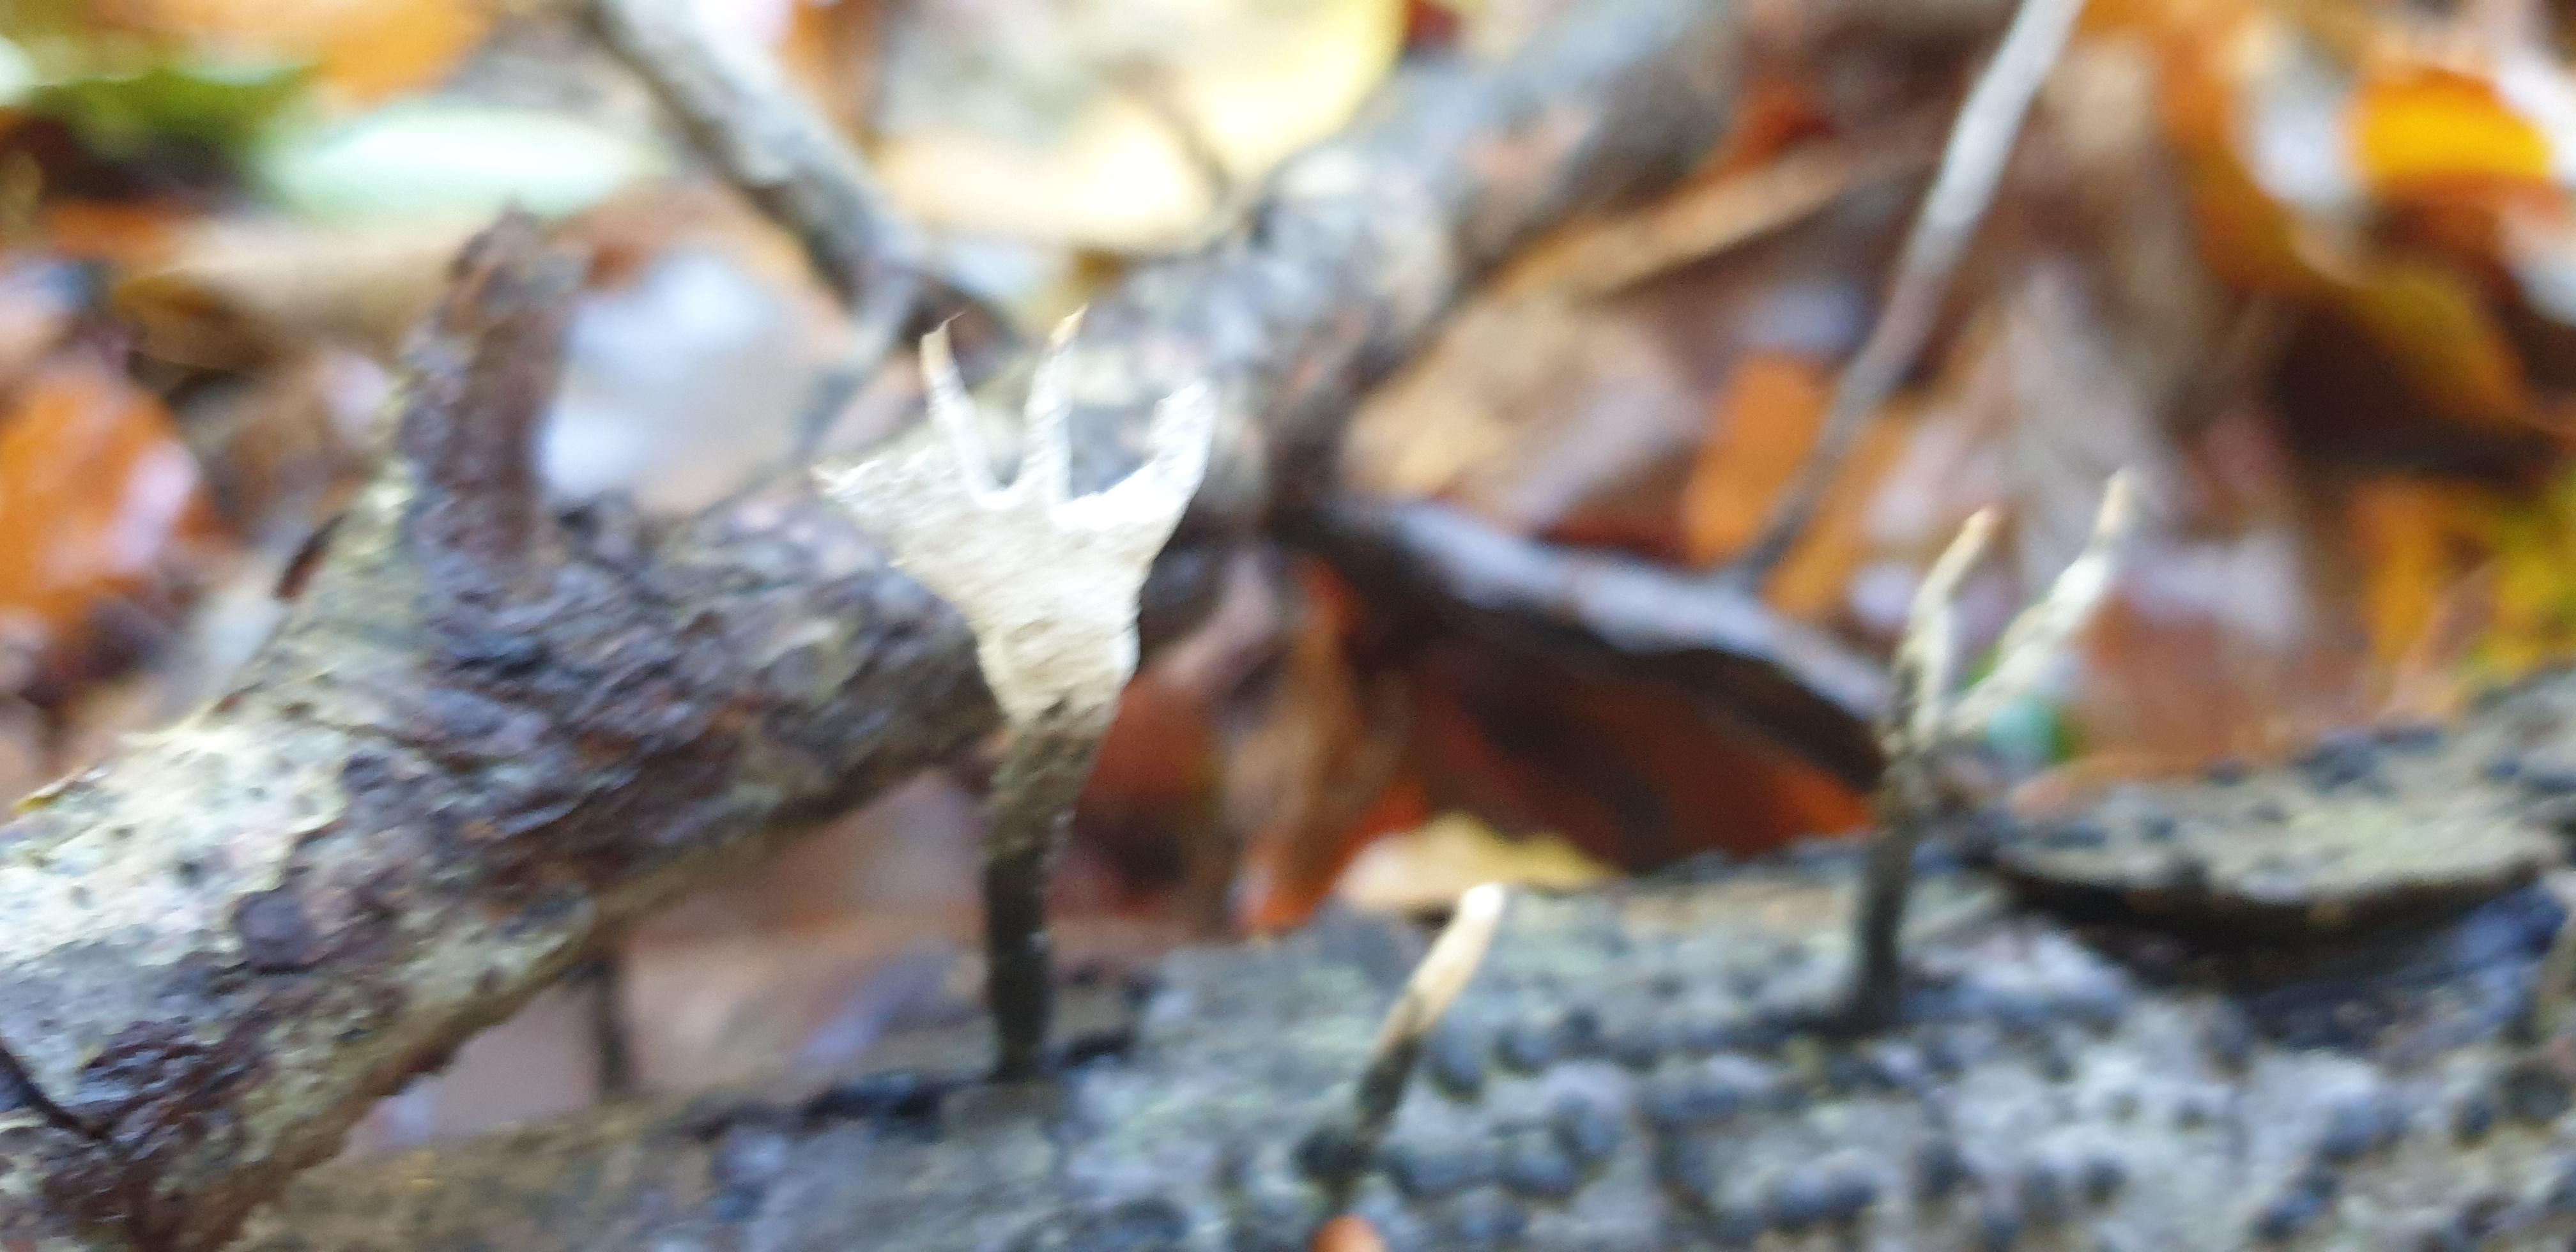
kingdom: Fungi
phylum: Ascomycota
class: Sordariomycetes
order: Xylariales
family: Xylariaceae
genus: Xylaria
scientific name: Xylaria hypoxylon
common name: grenet stødsvamp
